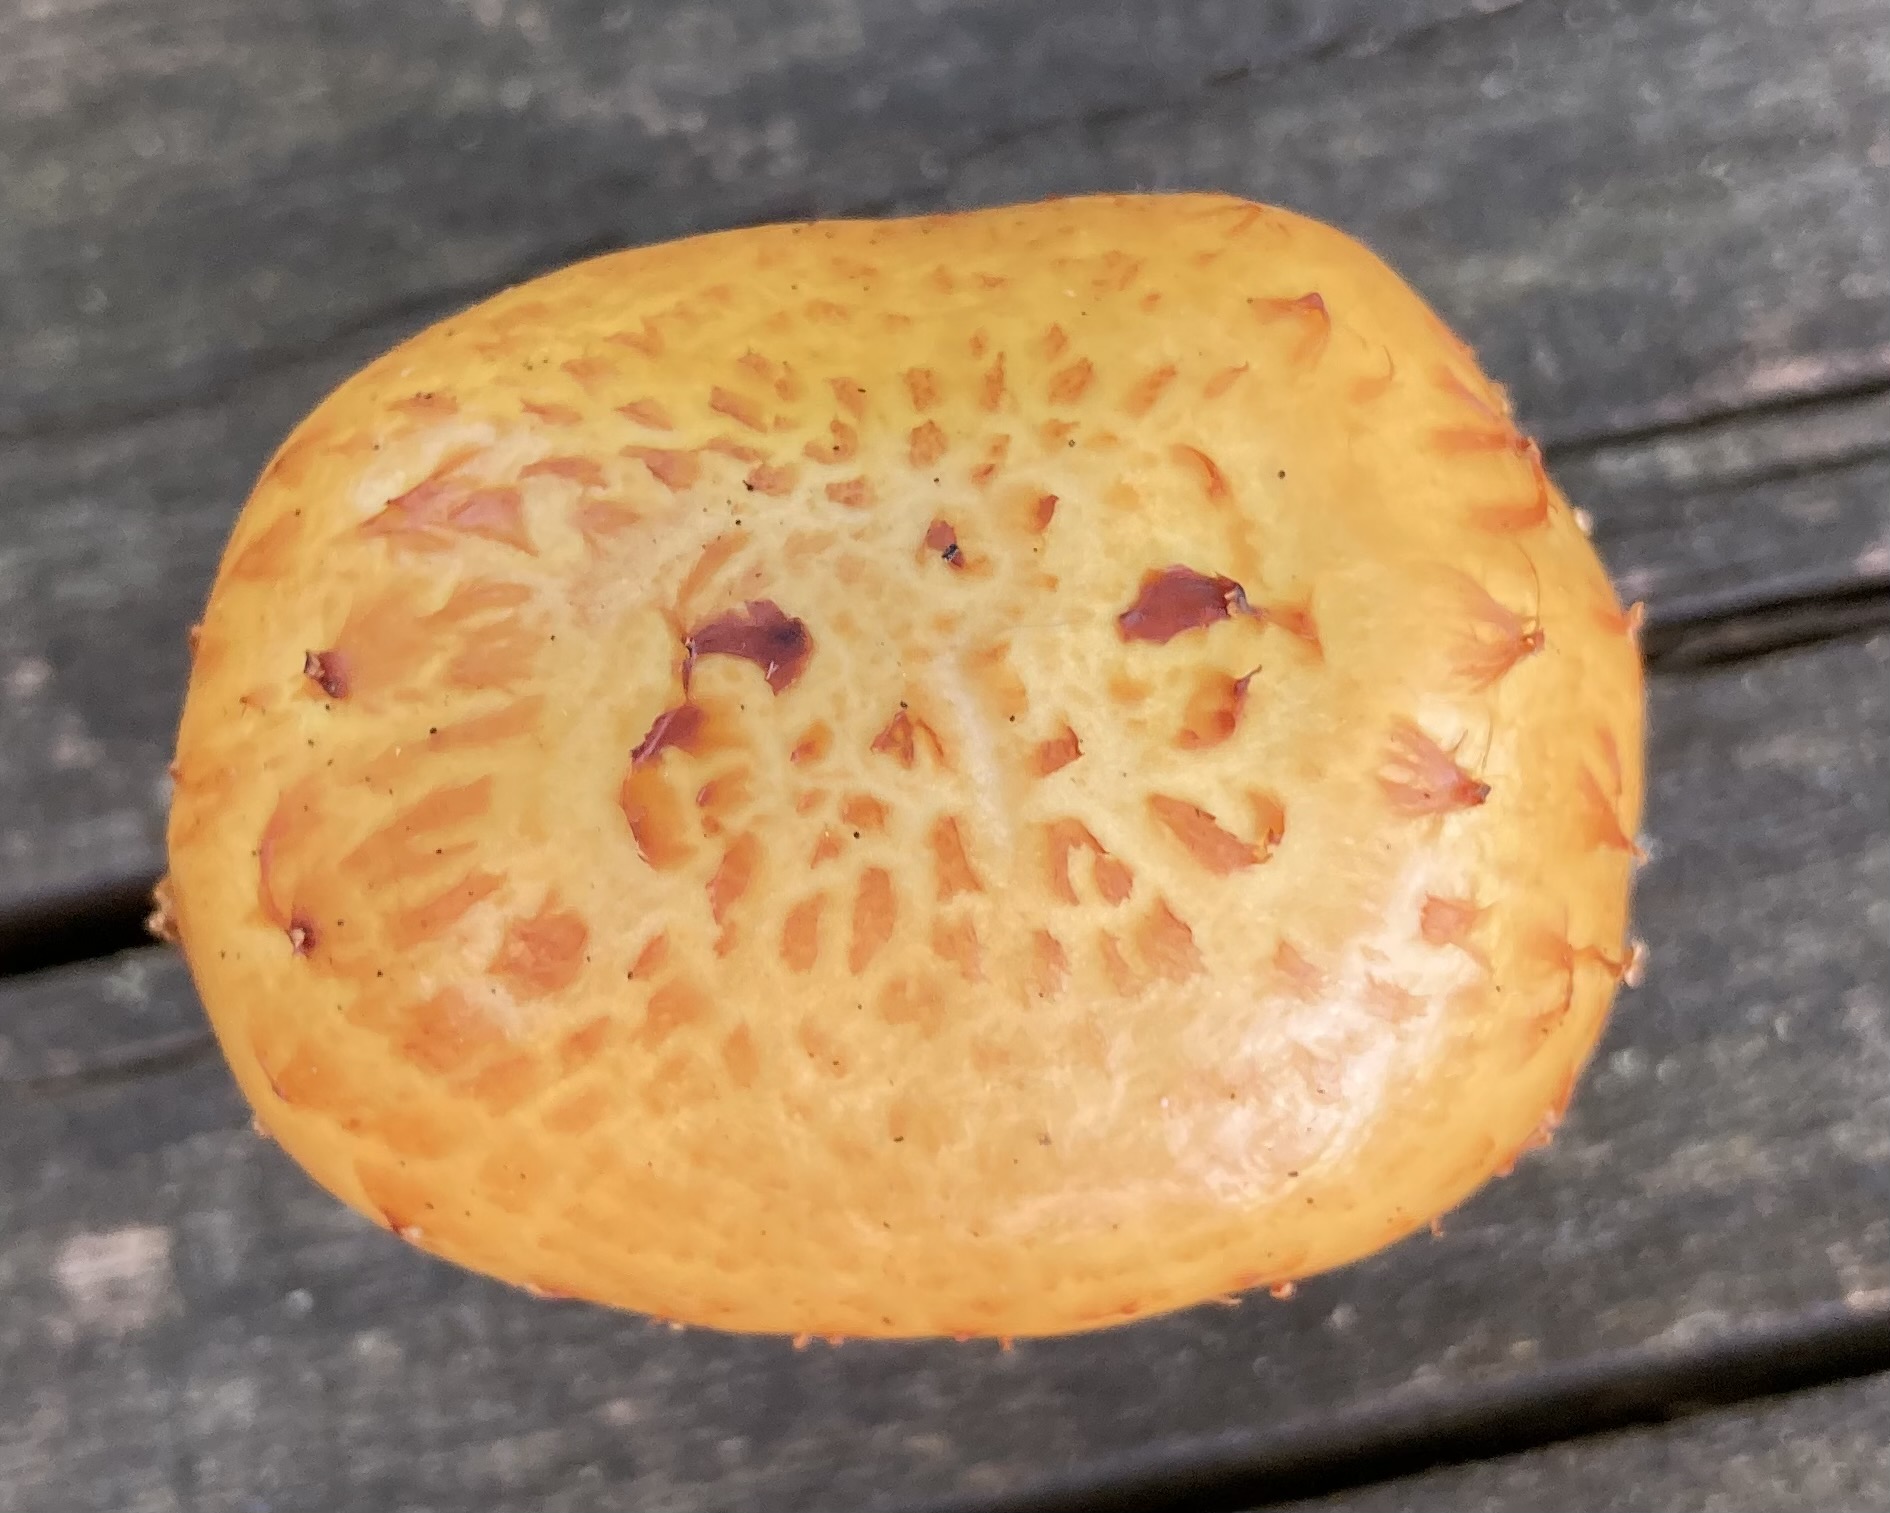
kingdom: Fungi
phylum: Basidiomycota
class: Agaricomycetes
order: Agaricales
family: Strophariaceae
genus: Pholiota
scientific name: Pholiota
